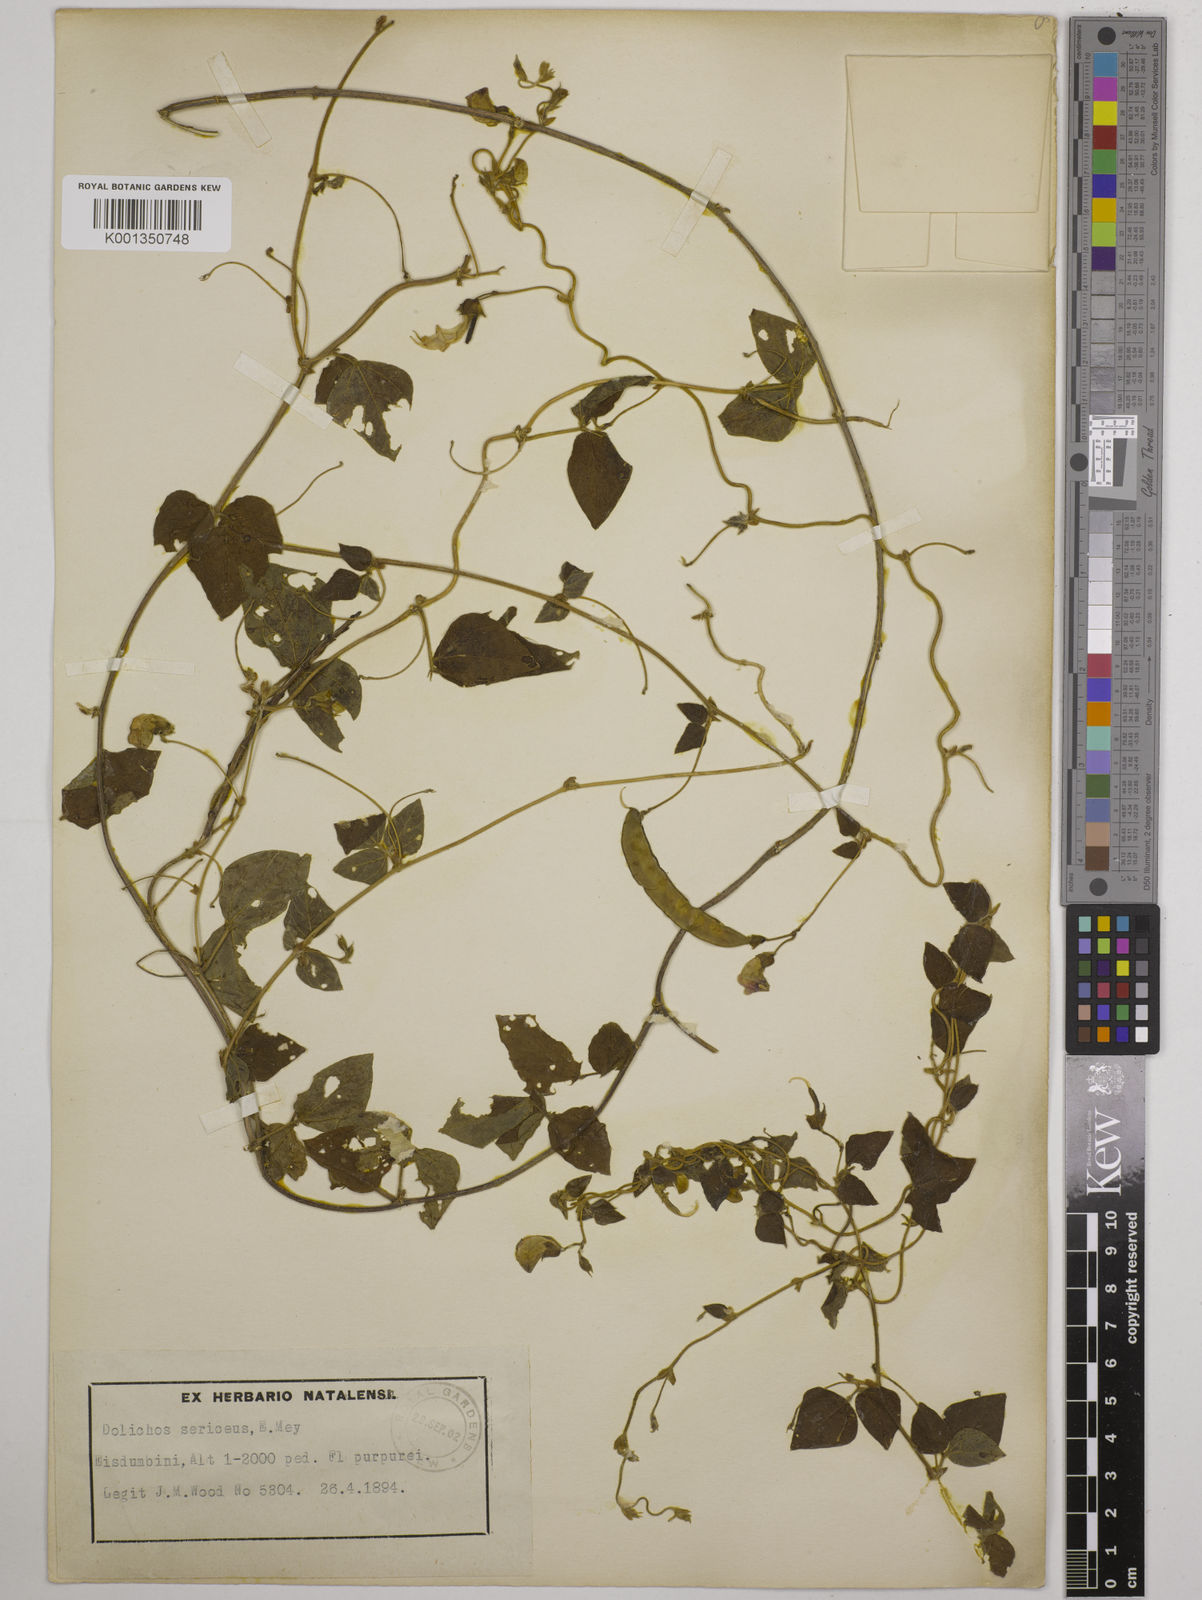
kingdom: Plantae
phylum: Tracheophyta
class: Magnoliopsida
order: Fabales
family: Fabaceae
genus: Dolichos
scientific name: Dolichos sericeus
